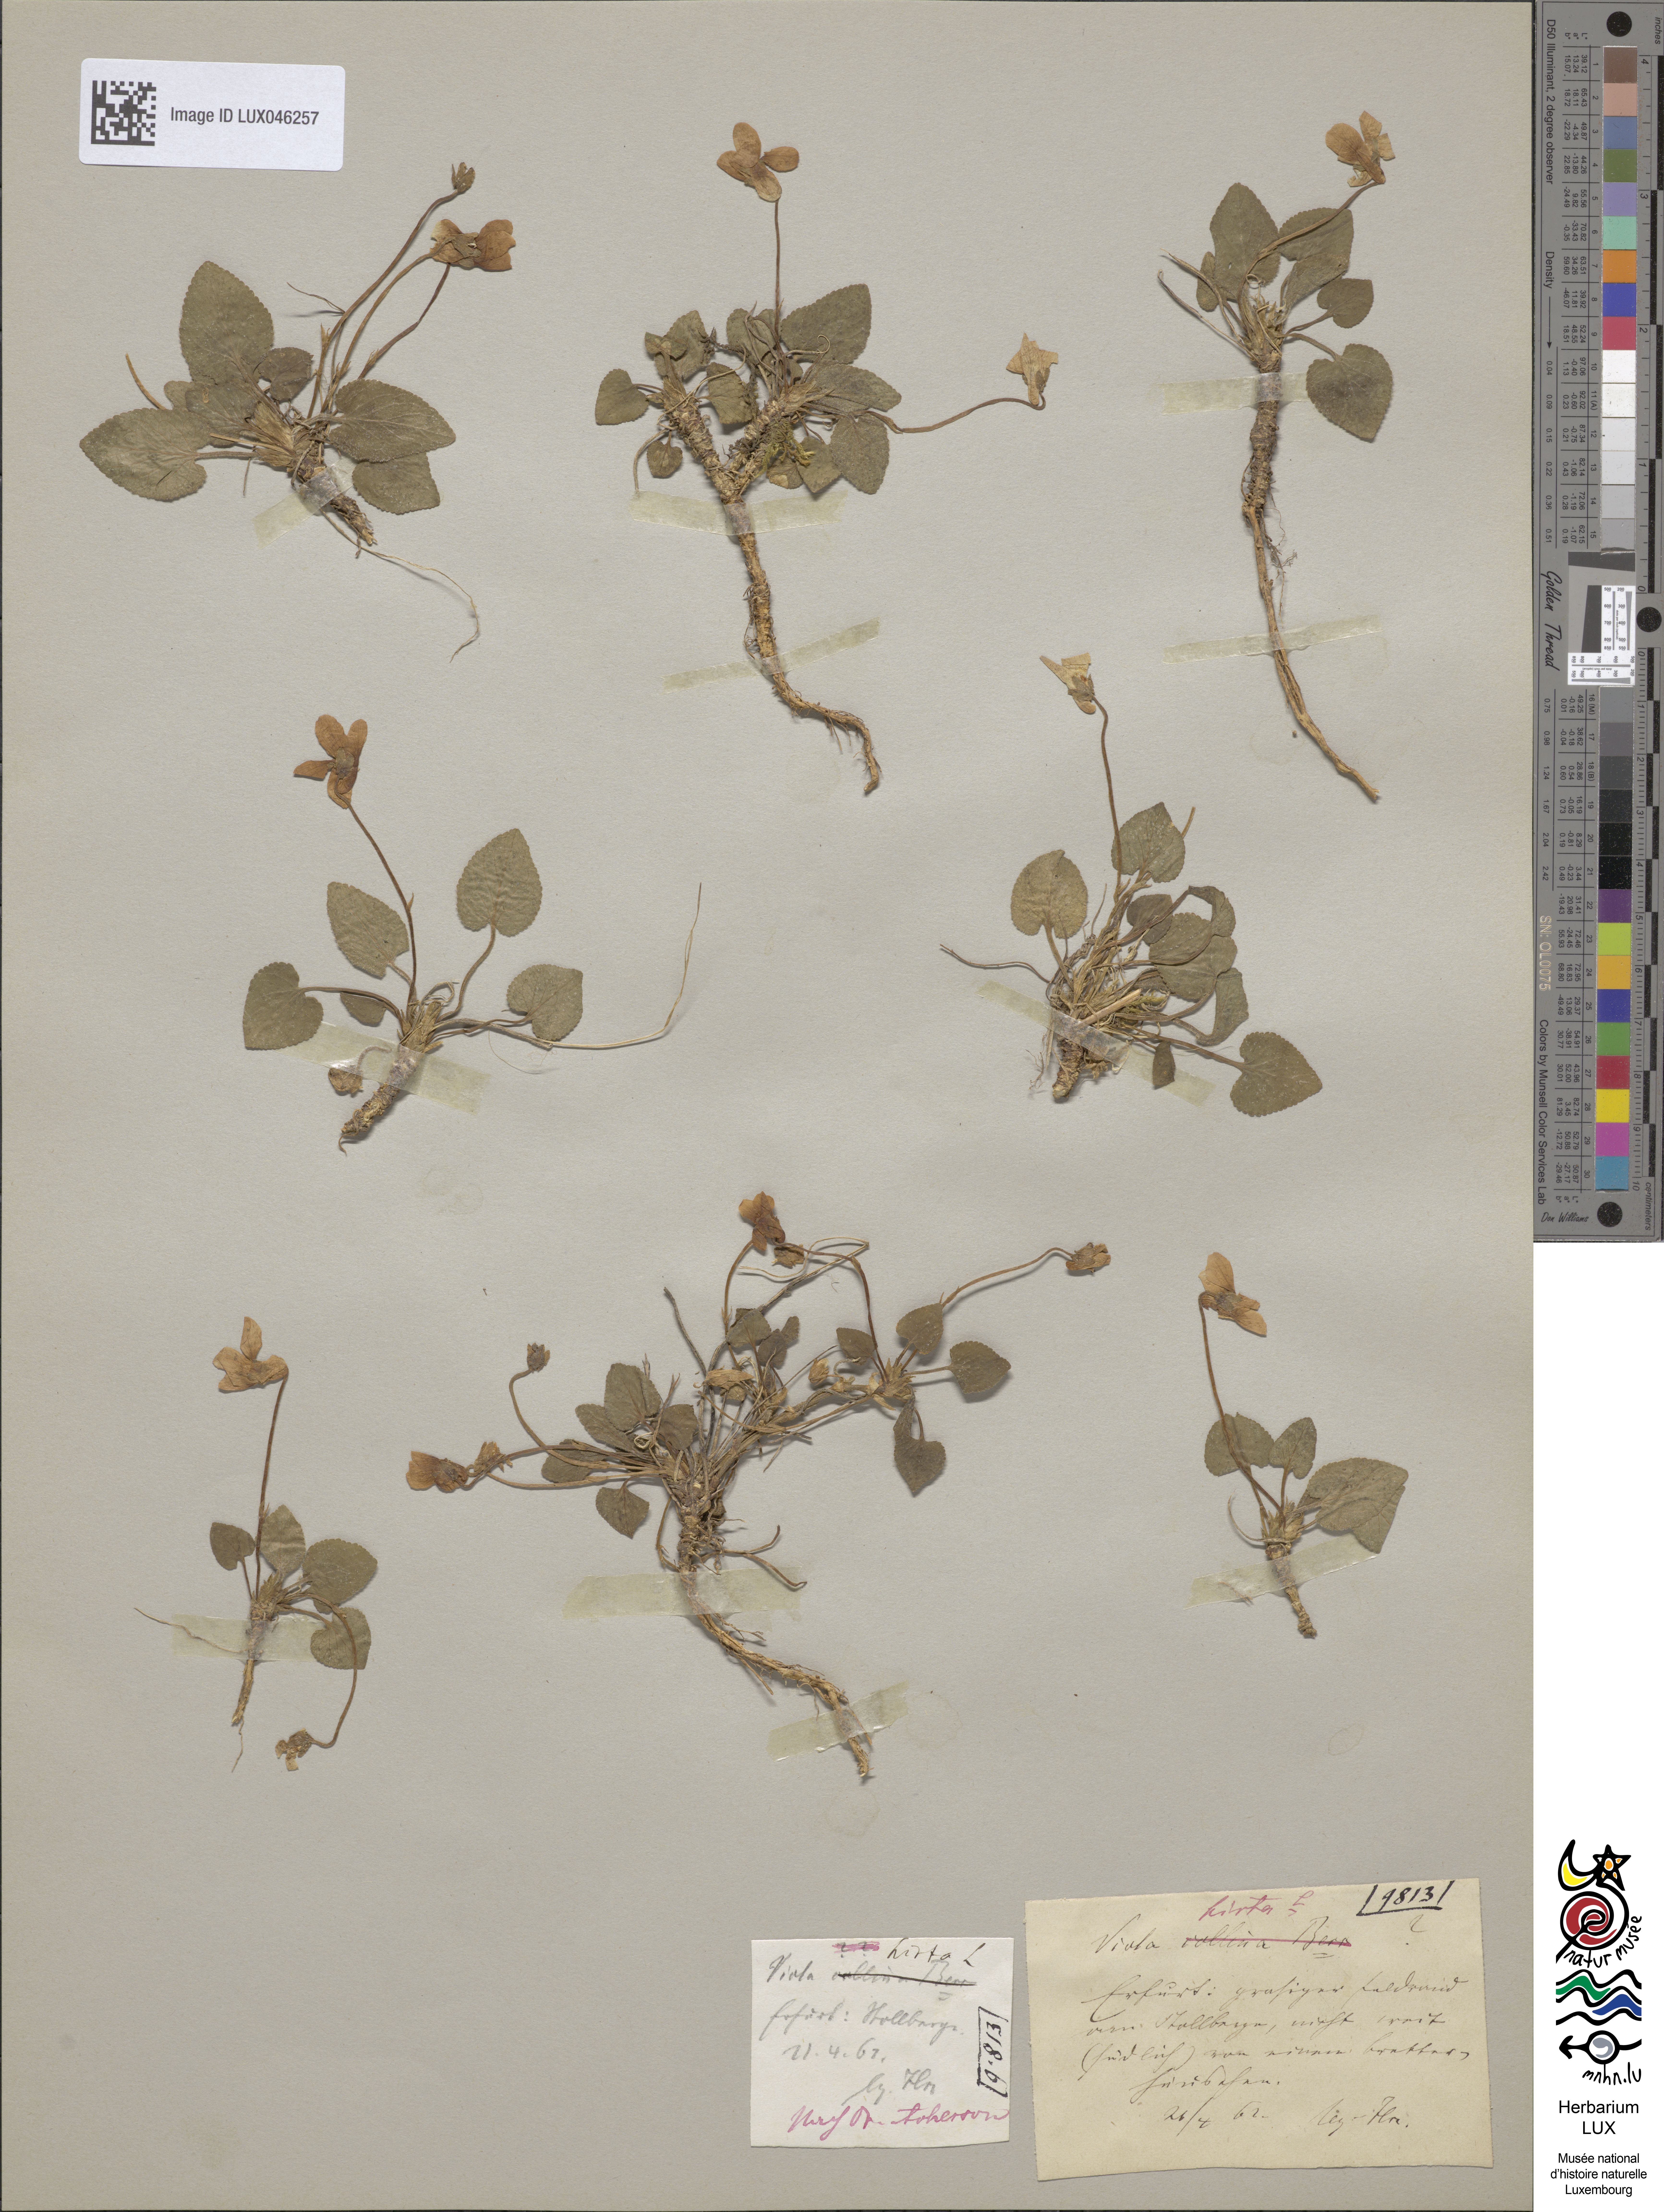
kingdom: Plantae
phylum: Tracheophyta
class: Magnoliopsida
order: Malpighiales
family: Violaceae
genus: Viola
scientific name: Viola hirta
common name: Hairy violet
